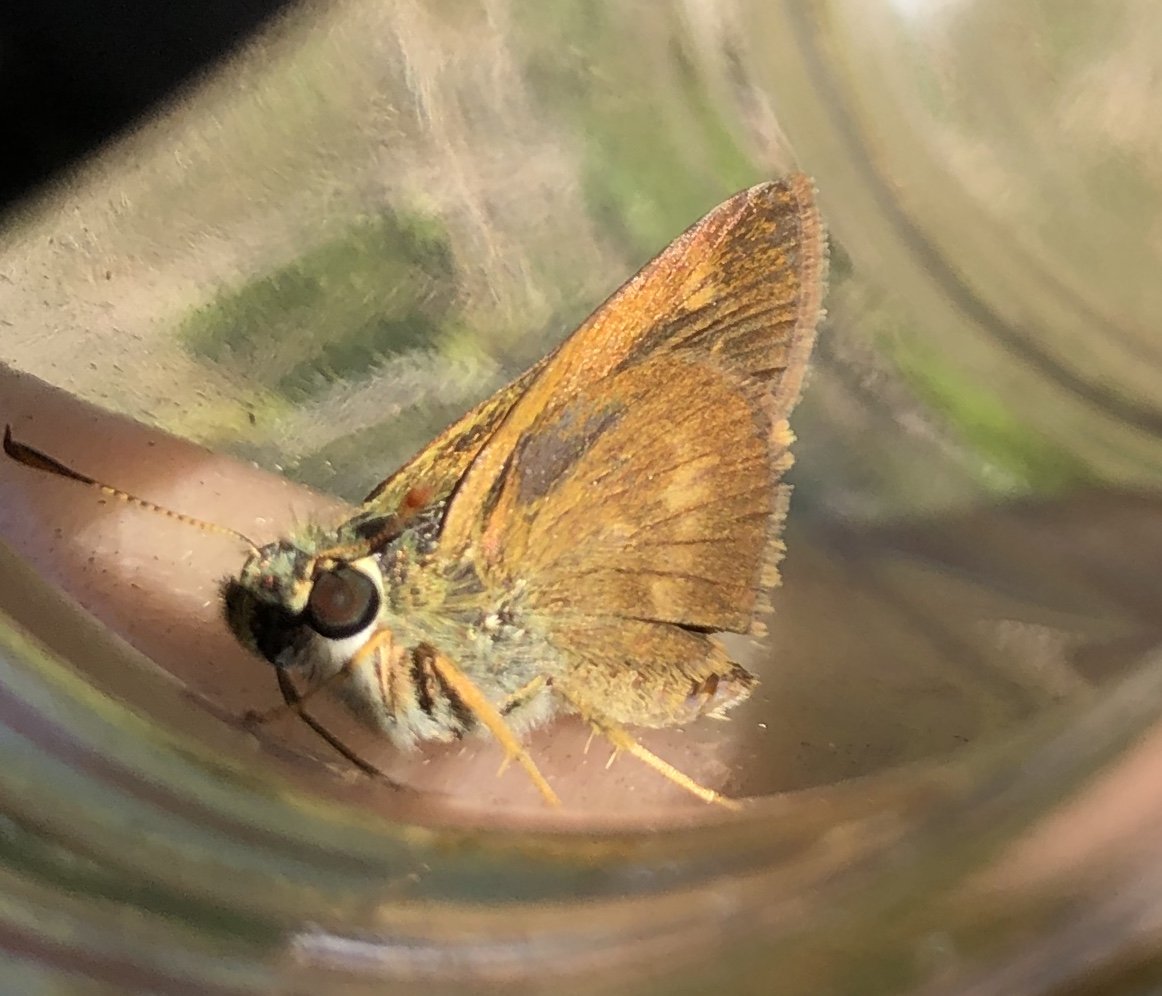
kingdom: Animalia
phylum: Arthropoda
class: Insecta
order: Lepidoptera
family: Hesperiidae
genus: Polites
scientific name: Polites egeremet
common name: Northern Broken-Dash
